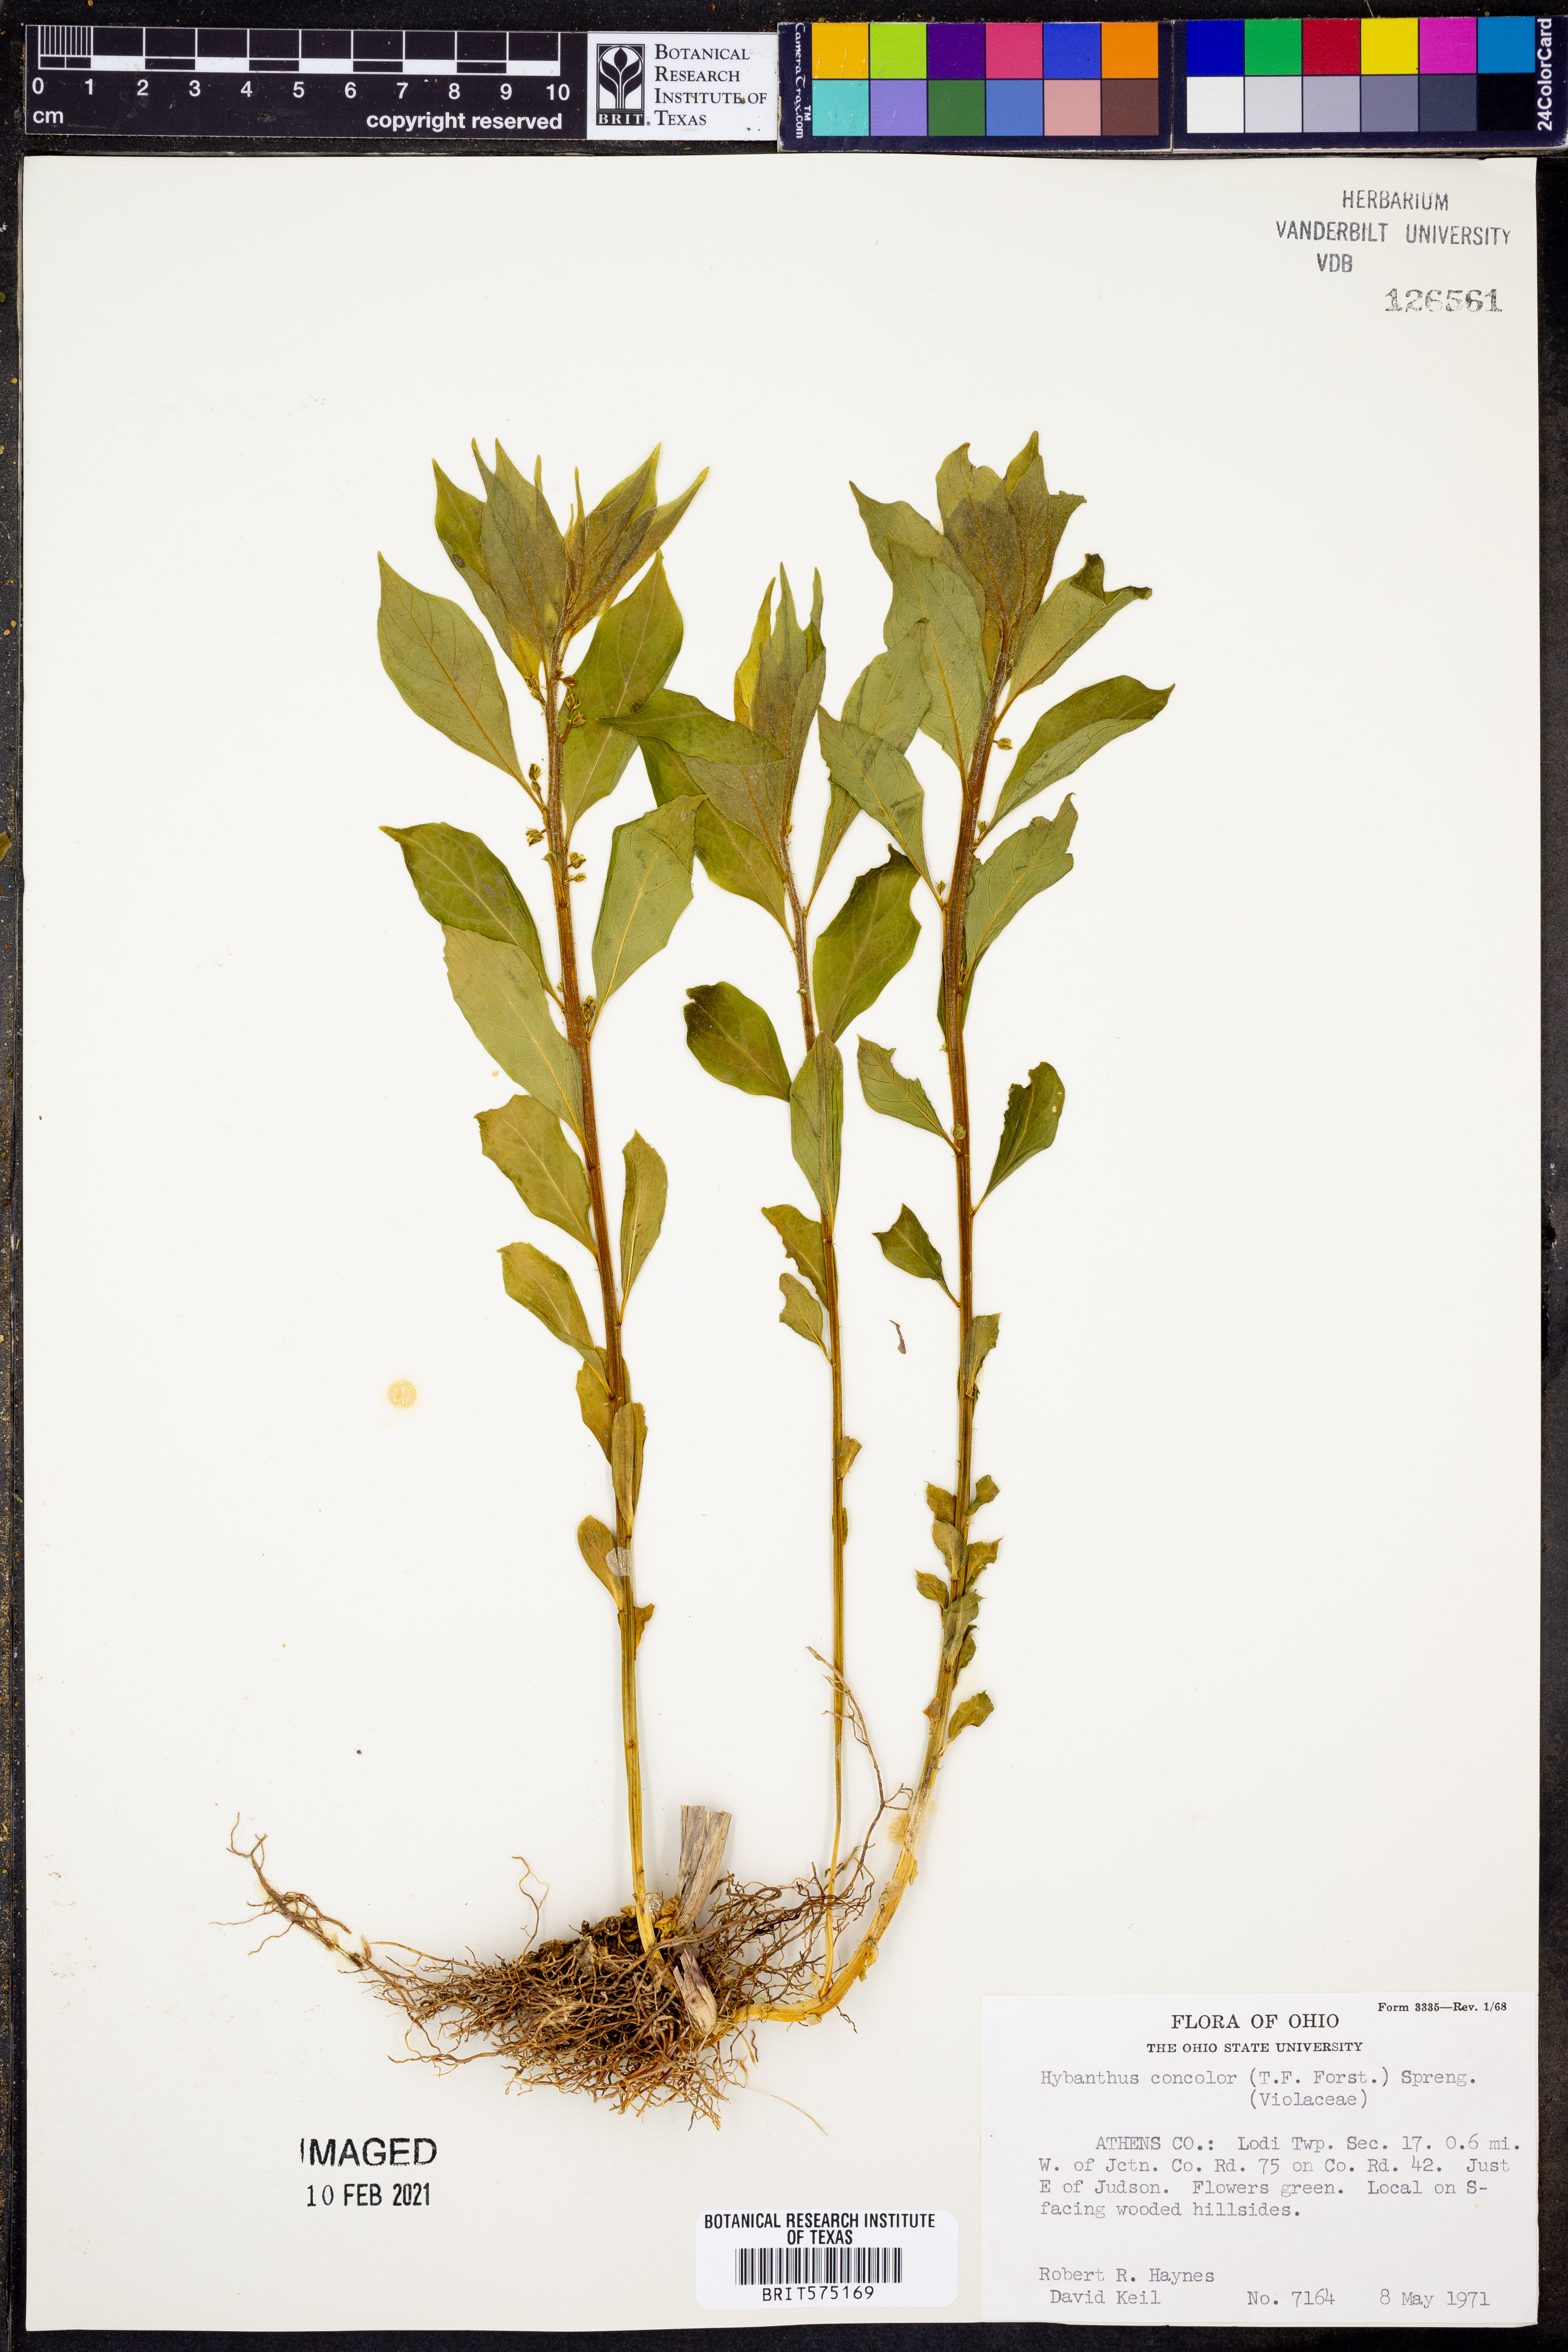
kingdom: Plantae
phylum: Tracheophyta
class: Magnoliopsida
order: Malpighiales
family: Violaceae
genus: Cubelium
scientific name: Cubelium concolor
